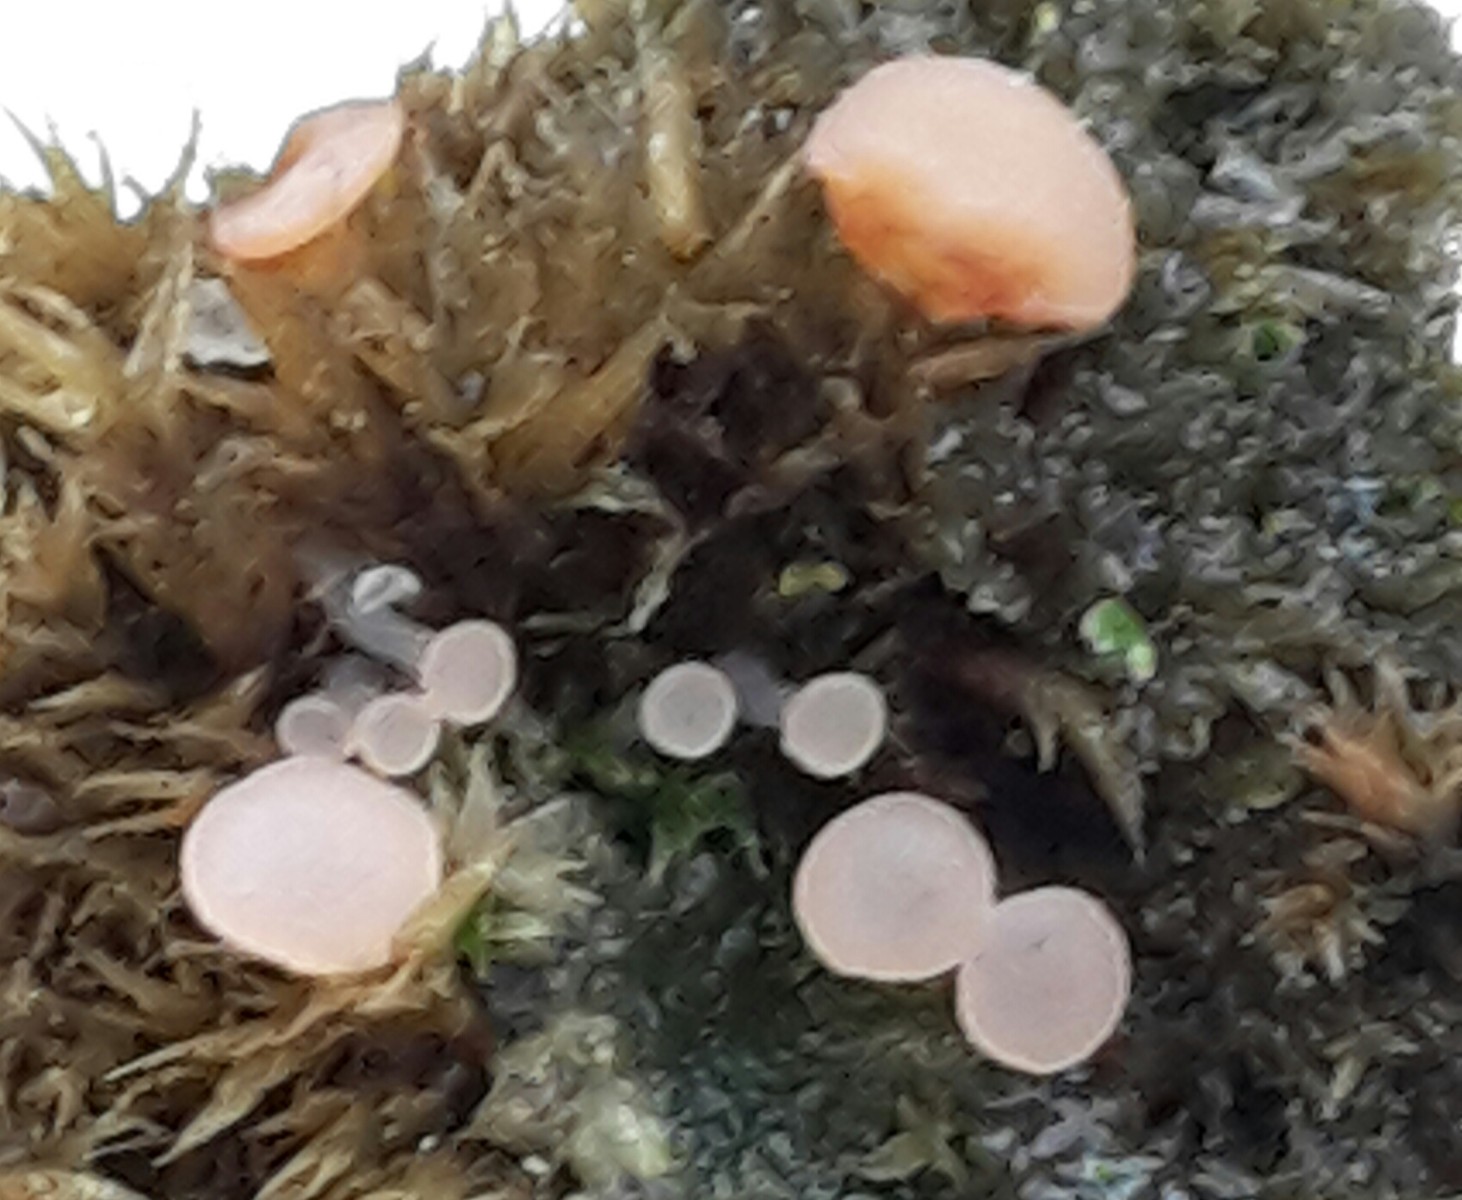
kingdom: Fungi
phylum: Ascomycota
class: Leotiomycetes
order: Helotiales
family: Hyaloscyphaceae
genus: Roseodiscus
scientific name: Roseodiscus formosus
